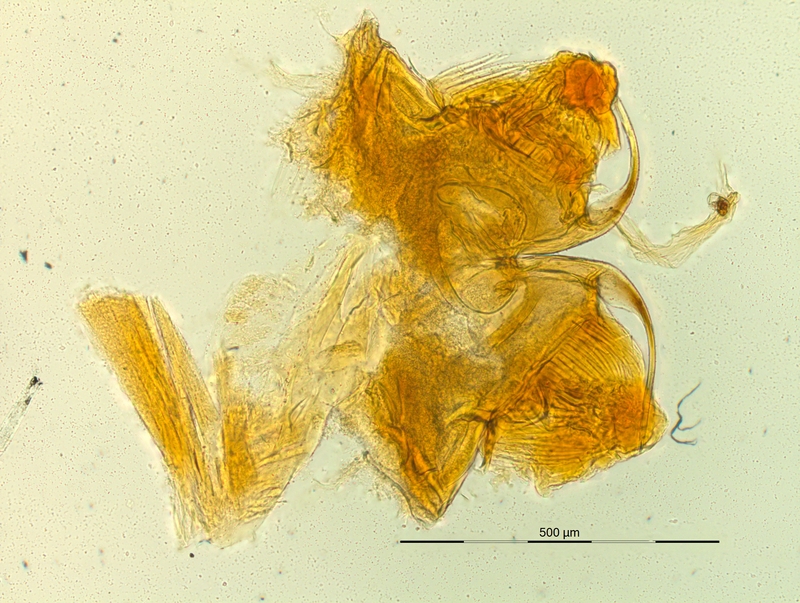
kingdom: Animalia
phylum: Arthropoda
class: Diplopoda
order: Chordeumatida
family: Craspedosomatidae
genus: Pyrgocyphosoma
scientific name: Pyrgocyphosoma brunatense
